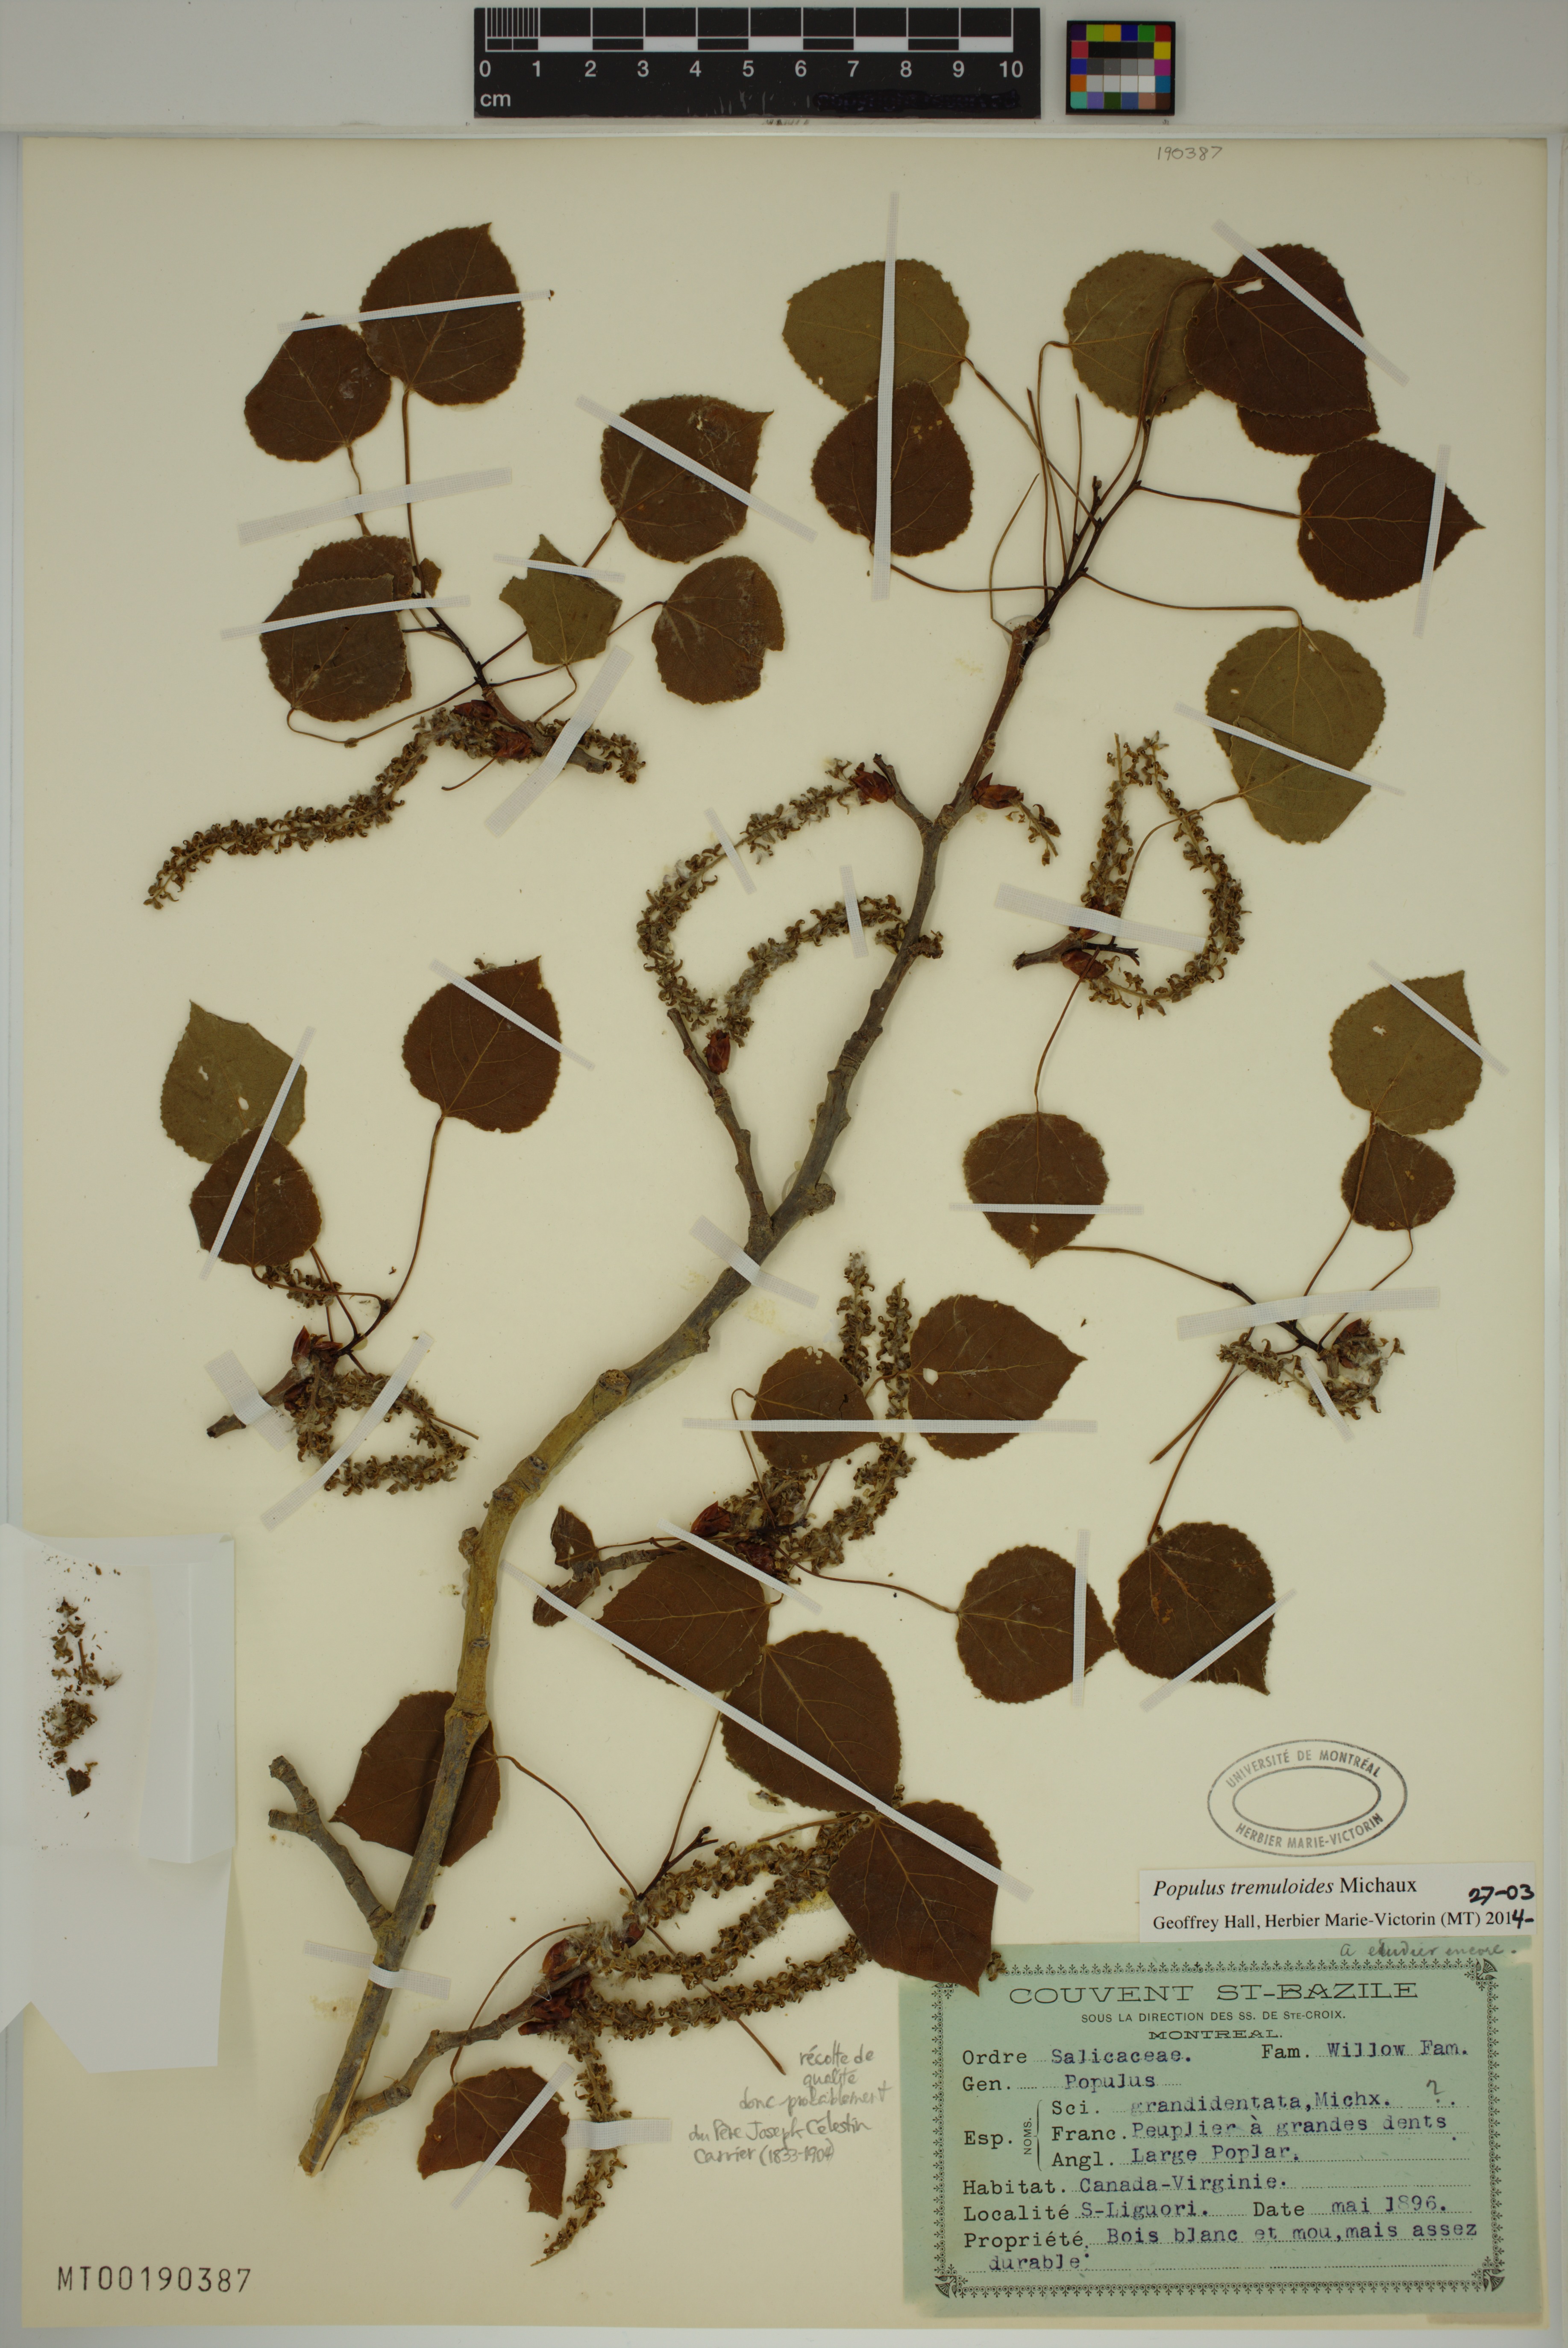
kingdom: Plantae
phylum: Tracheophyta
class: Magnoliopsida
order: Malpighiales
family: Salicaceae
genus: Populus
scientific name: Populus tremuloides
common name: Quaking aspen
